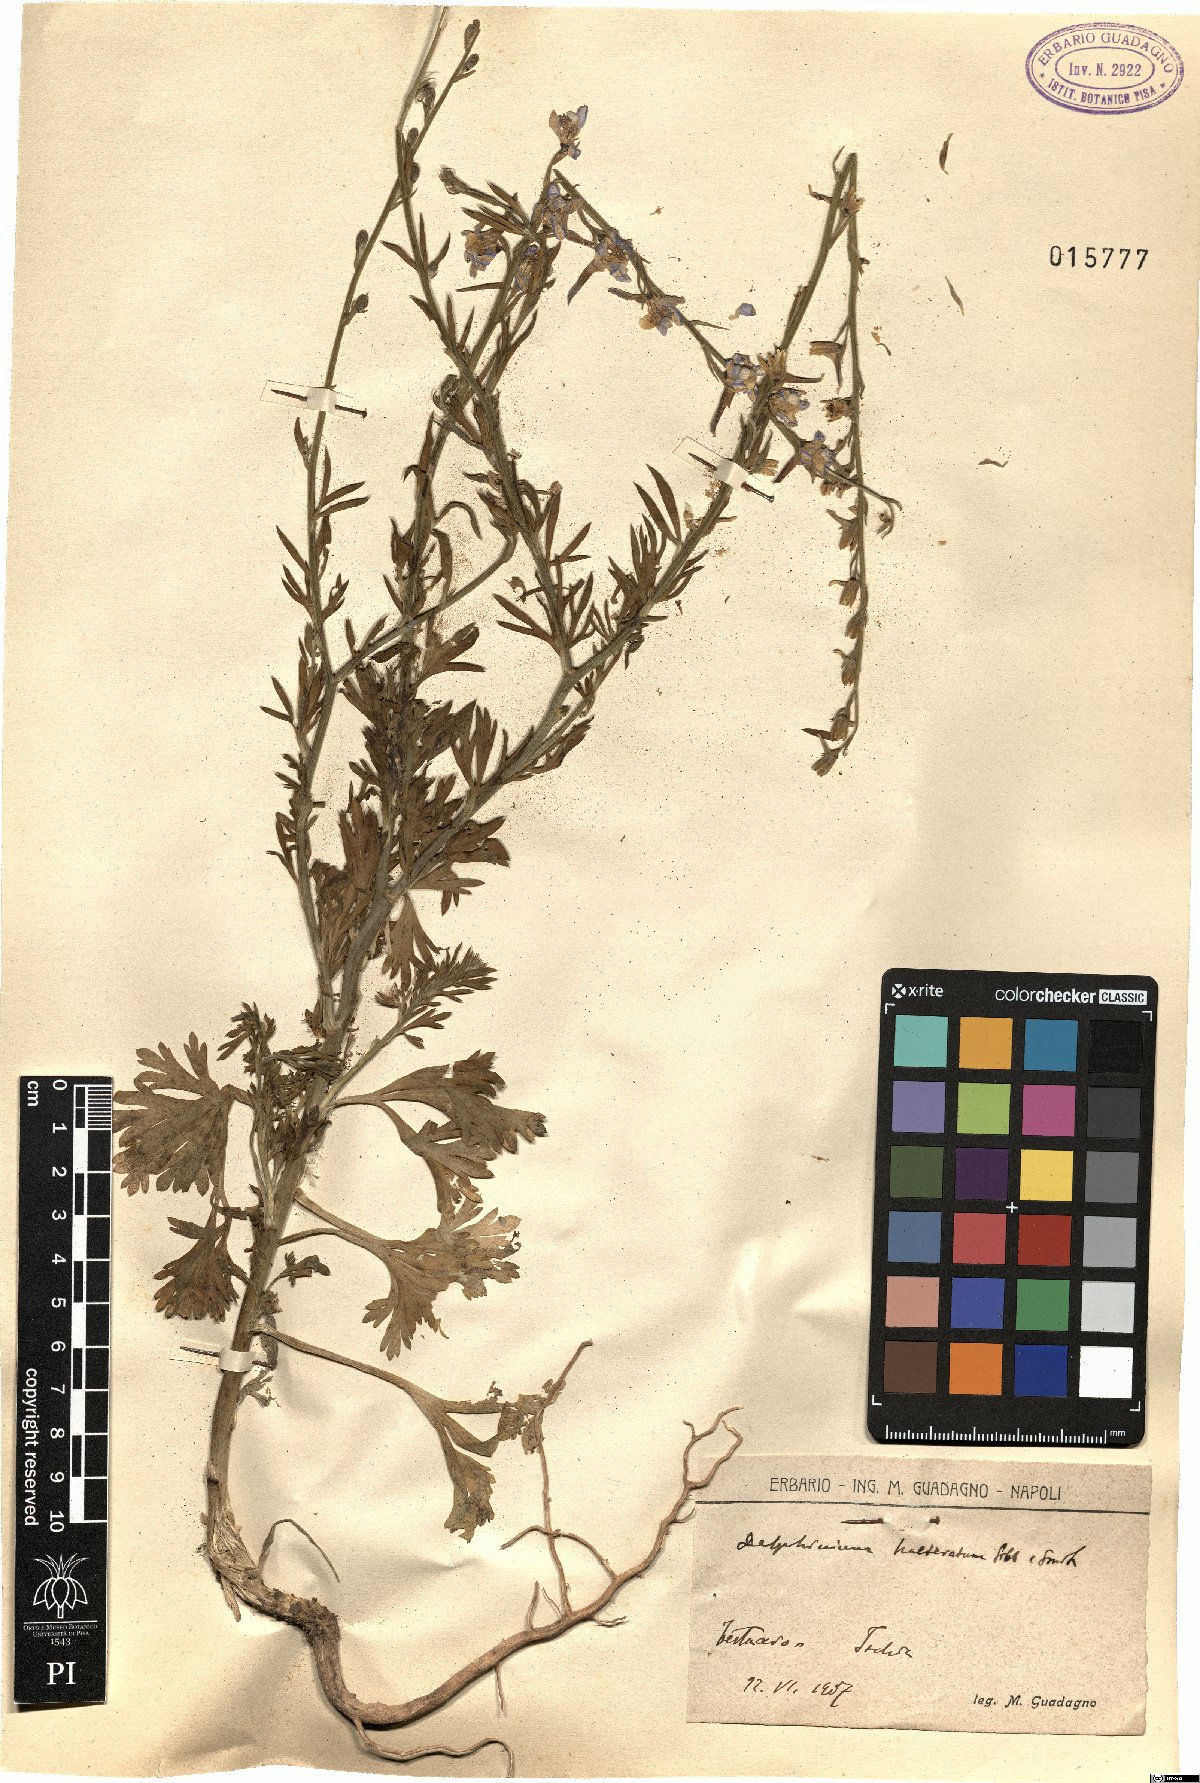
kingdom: Plantae
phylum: Tracheophyta
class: Magnoliopsida
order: Ranunculales
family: Ranunculaceae
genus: Delphinium
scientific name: Delphinium halteratum
